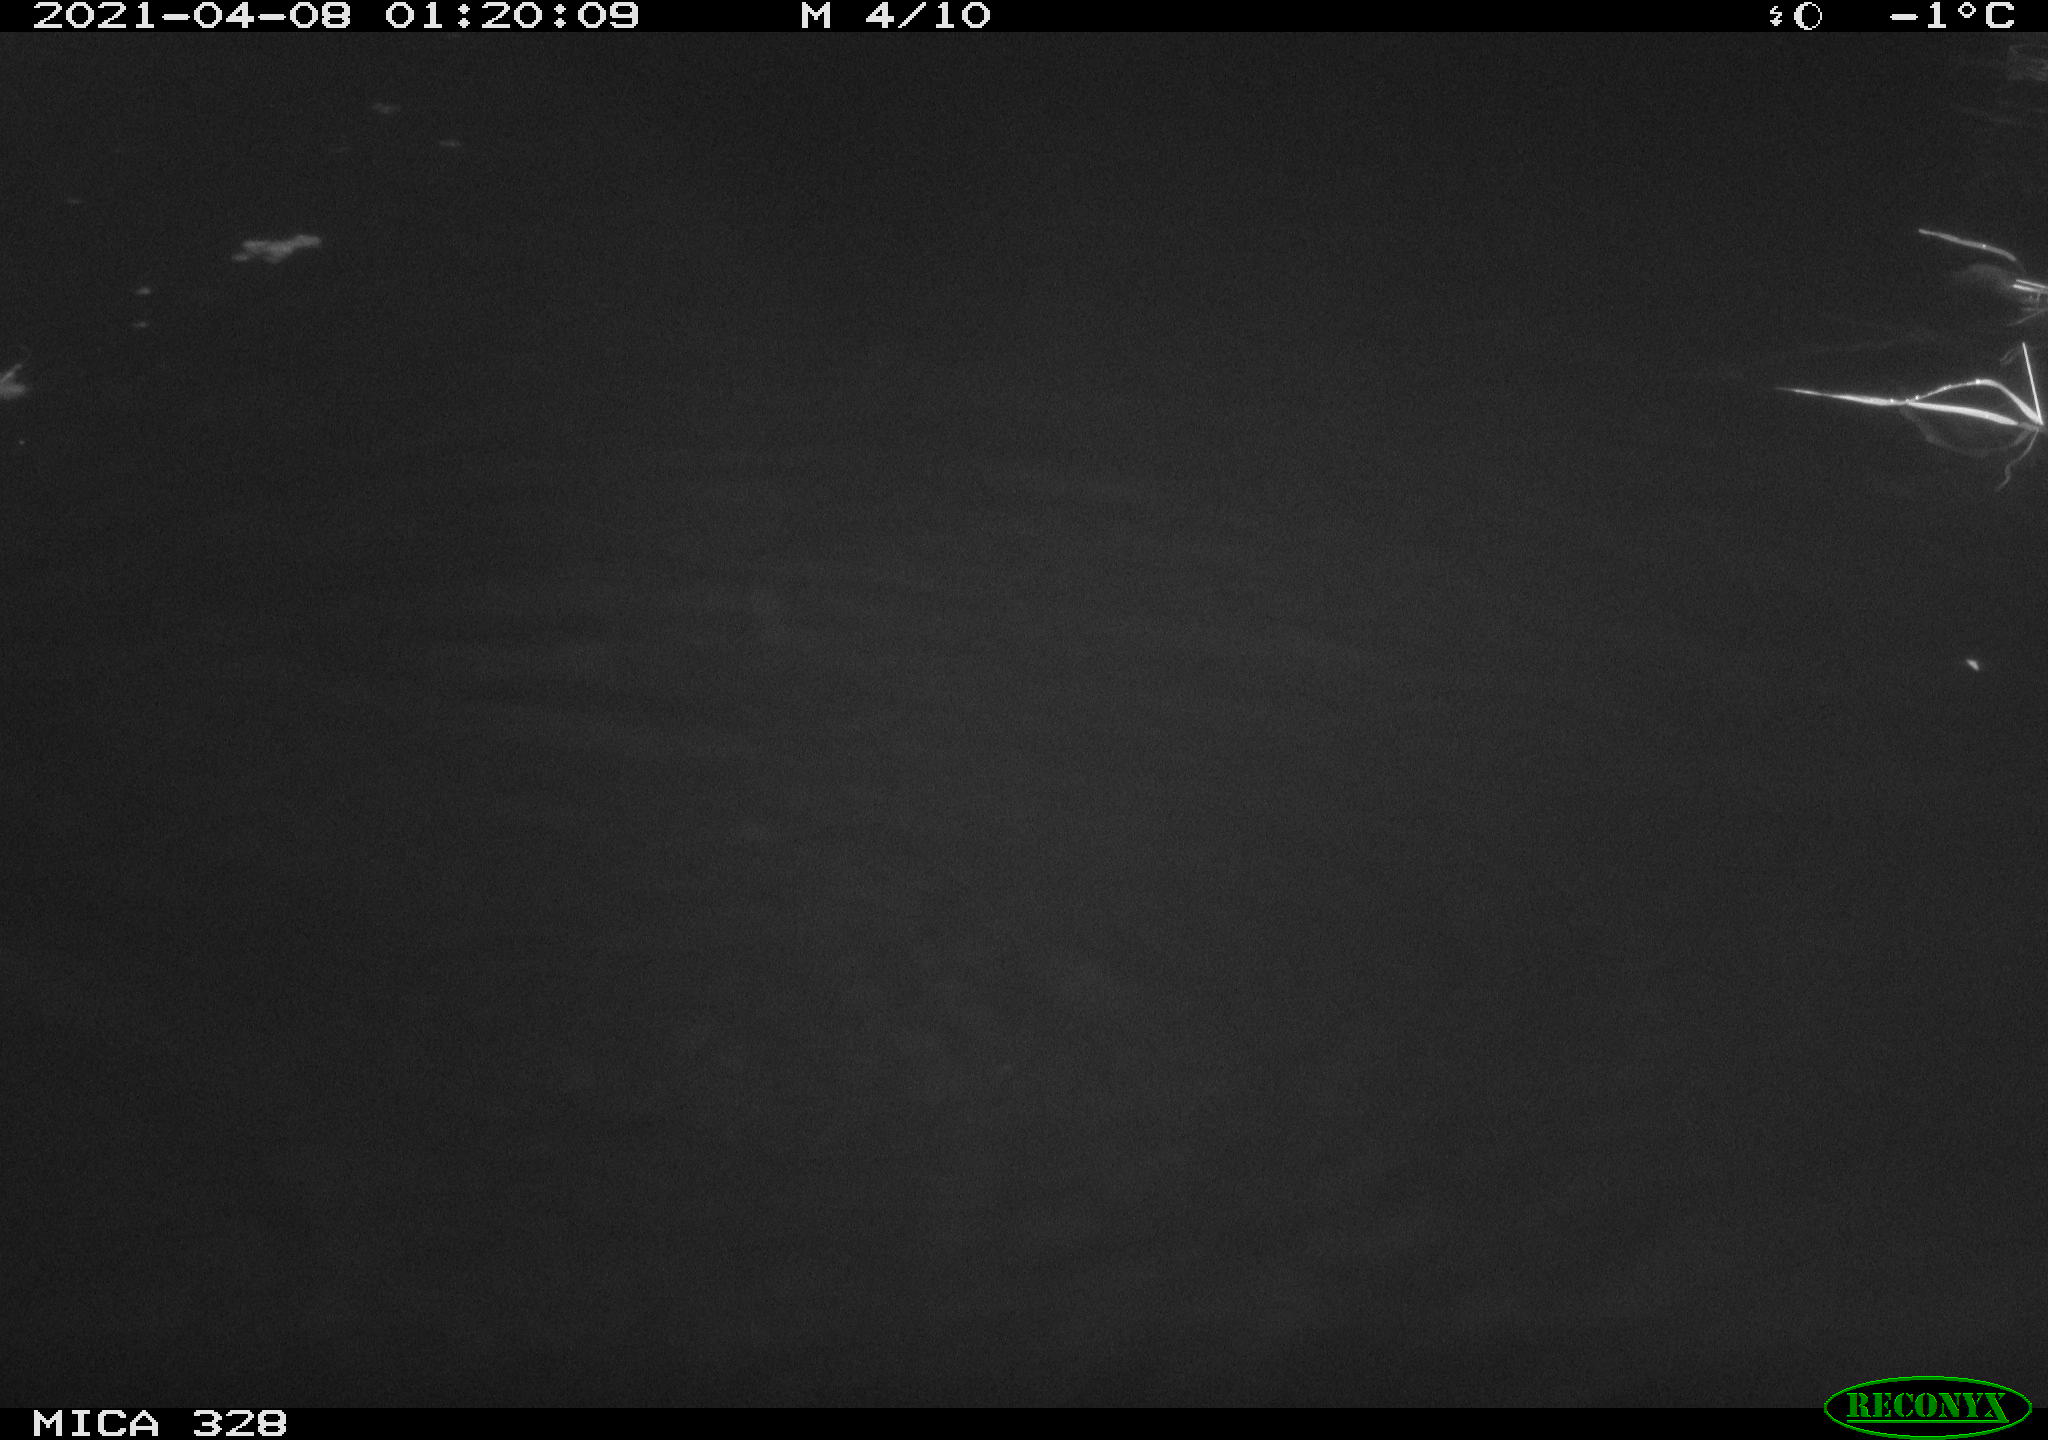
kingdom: Animalia
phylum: Chordata
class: Mammalia
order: Rodentia
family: Cricetidae
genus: Ondatra
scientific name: Ondatra zibethicus
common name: Muskrat
